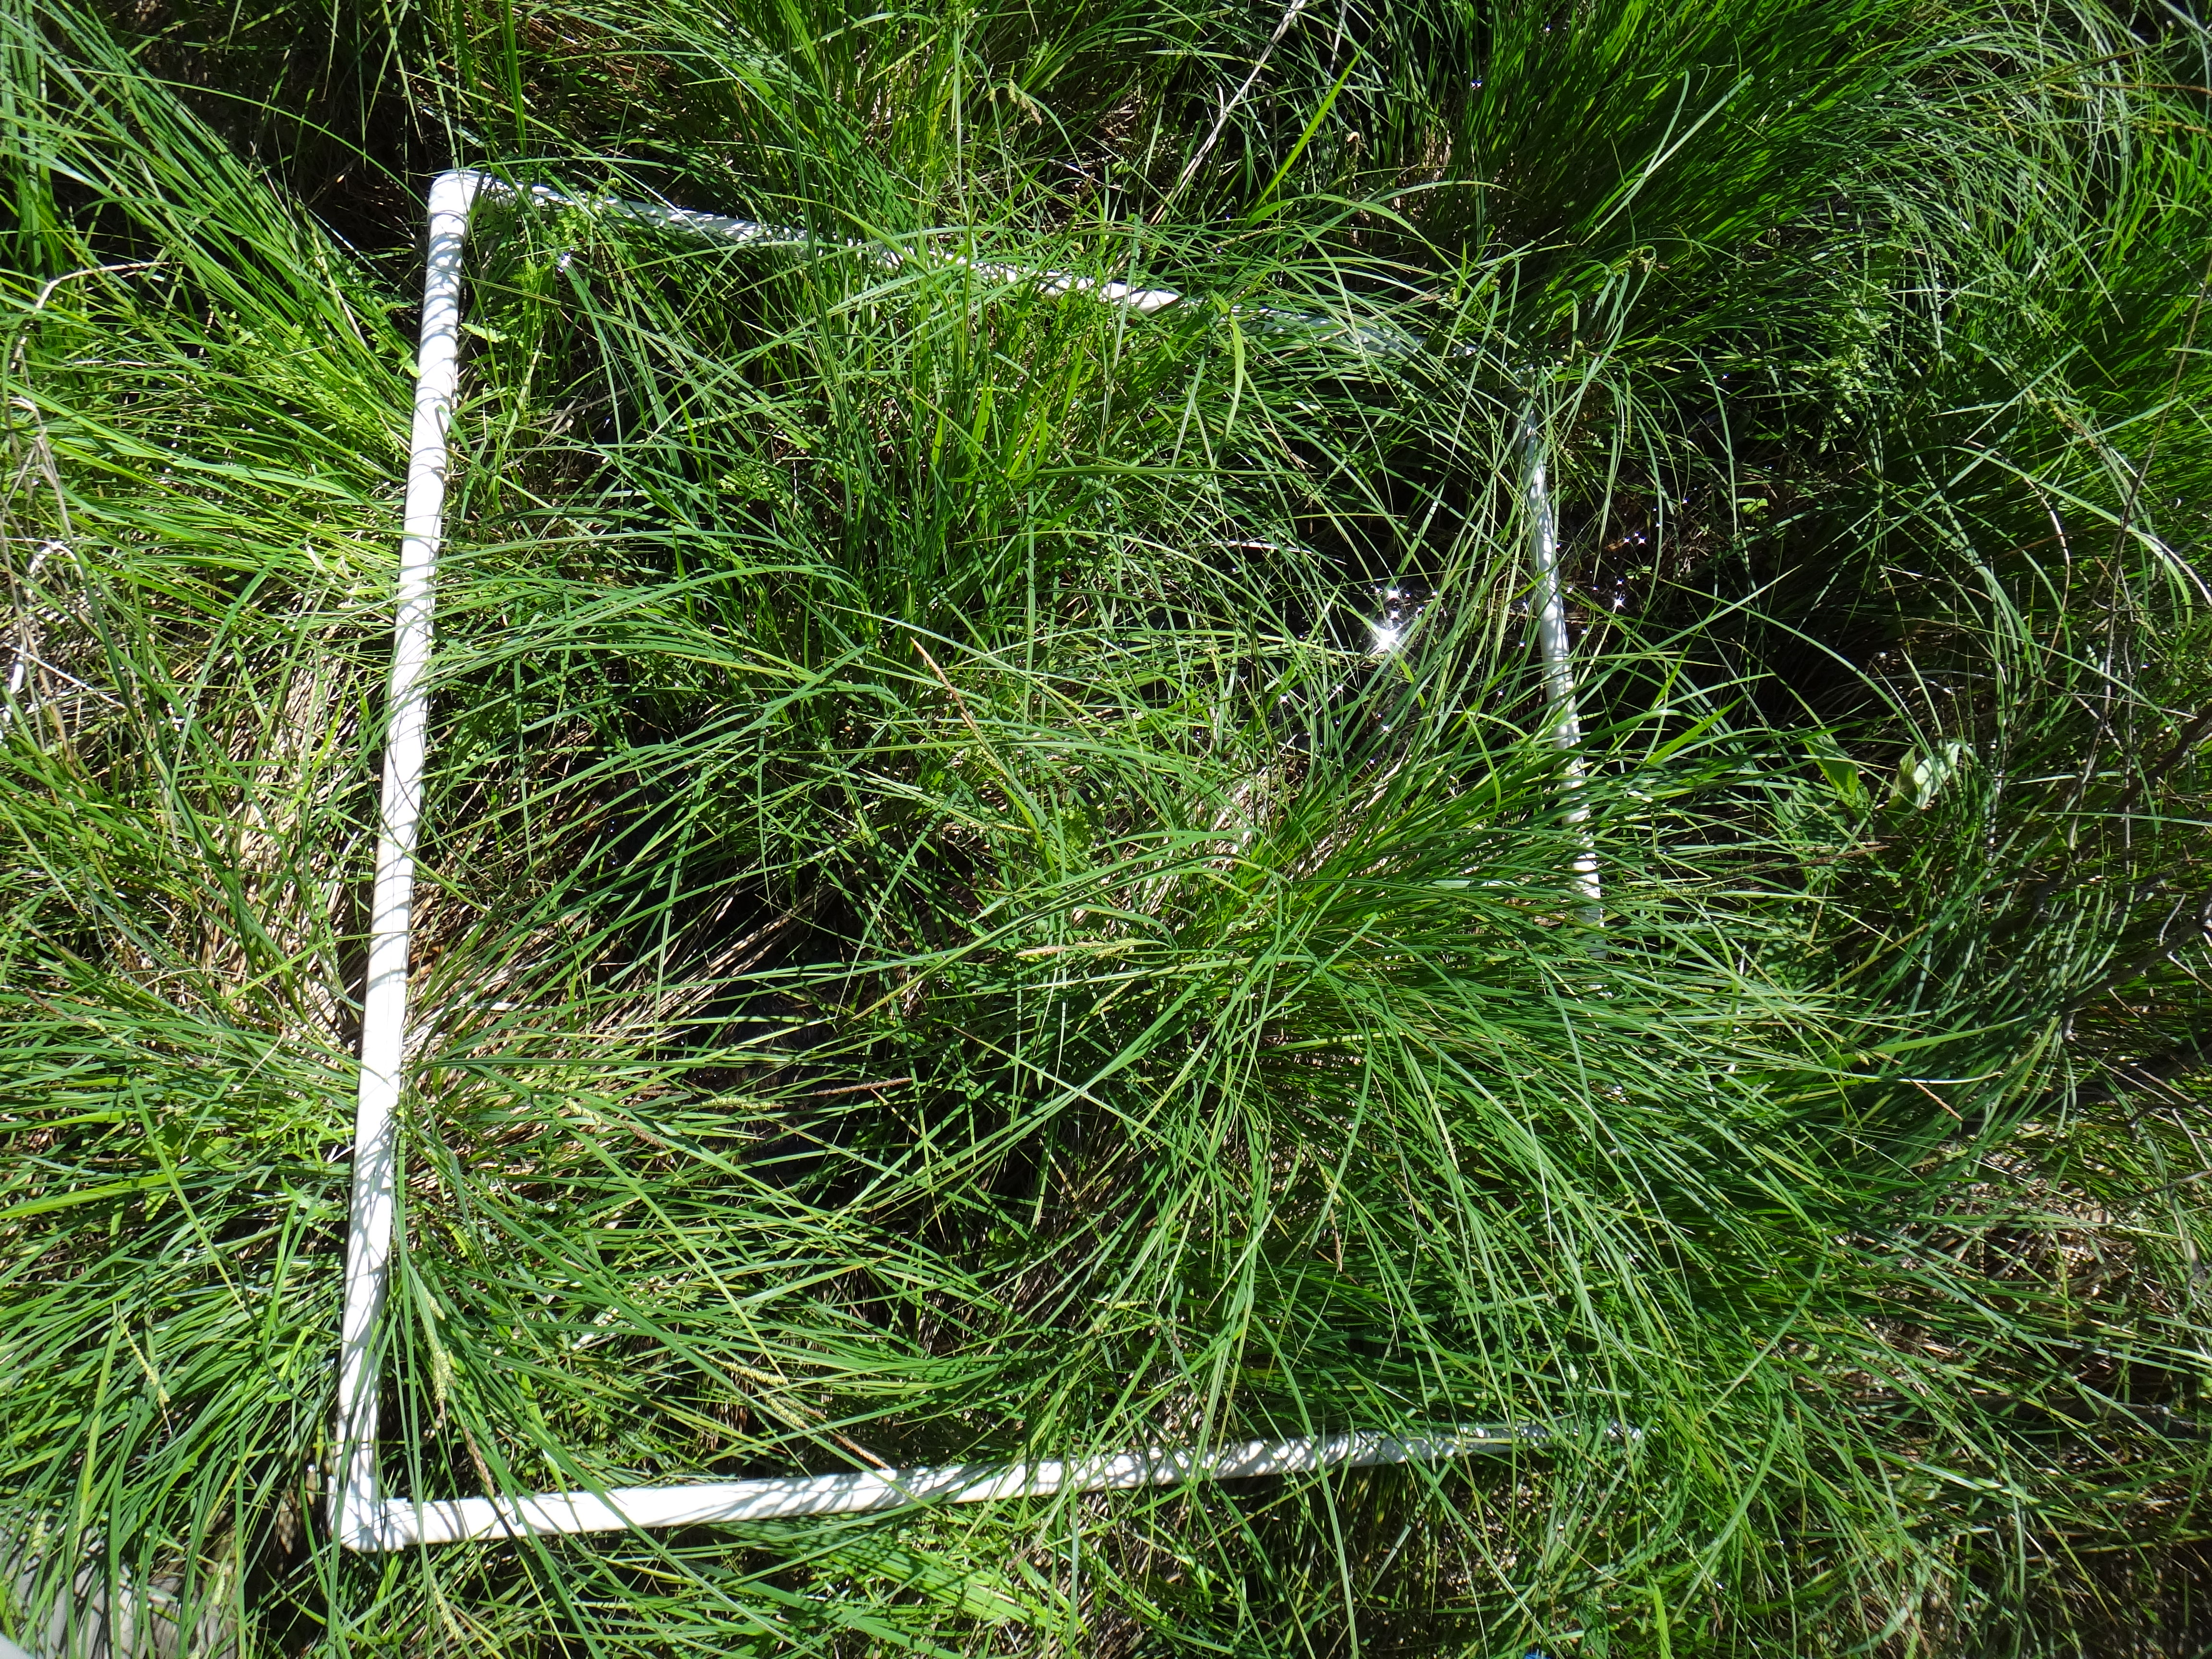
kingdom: Plantae
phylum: Tracheophyta
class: Magnoliopsida
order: Asterales
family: Asteraceae
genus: Symphyotrichum
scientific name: Symphyotrichum lateriflorum
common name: Calico aster
